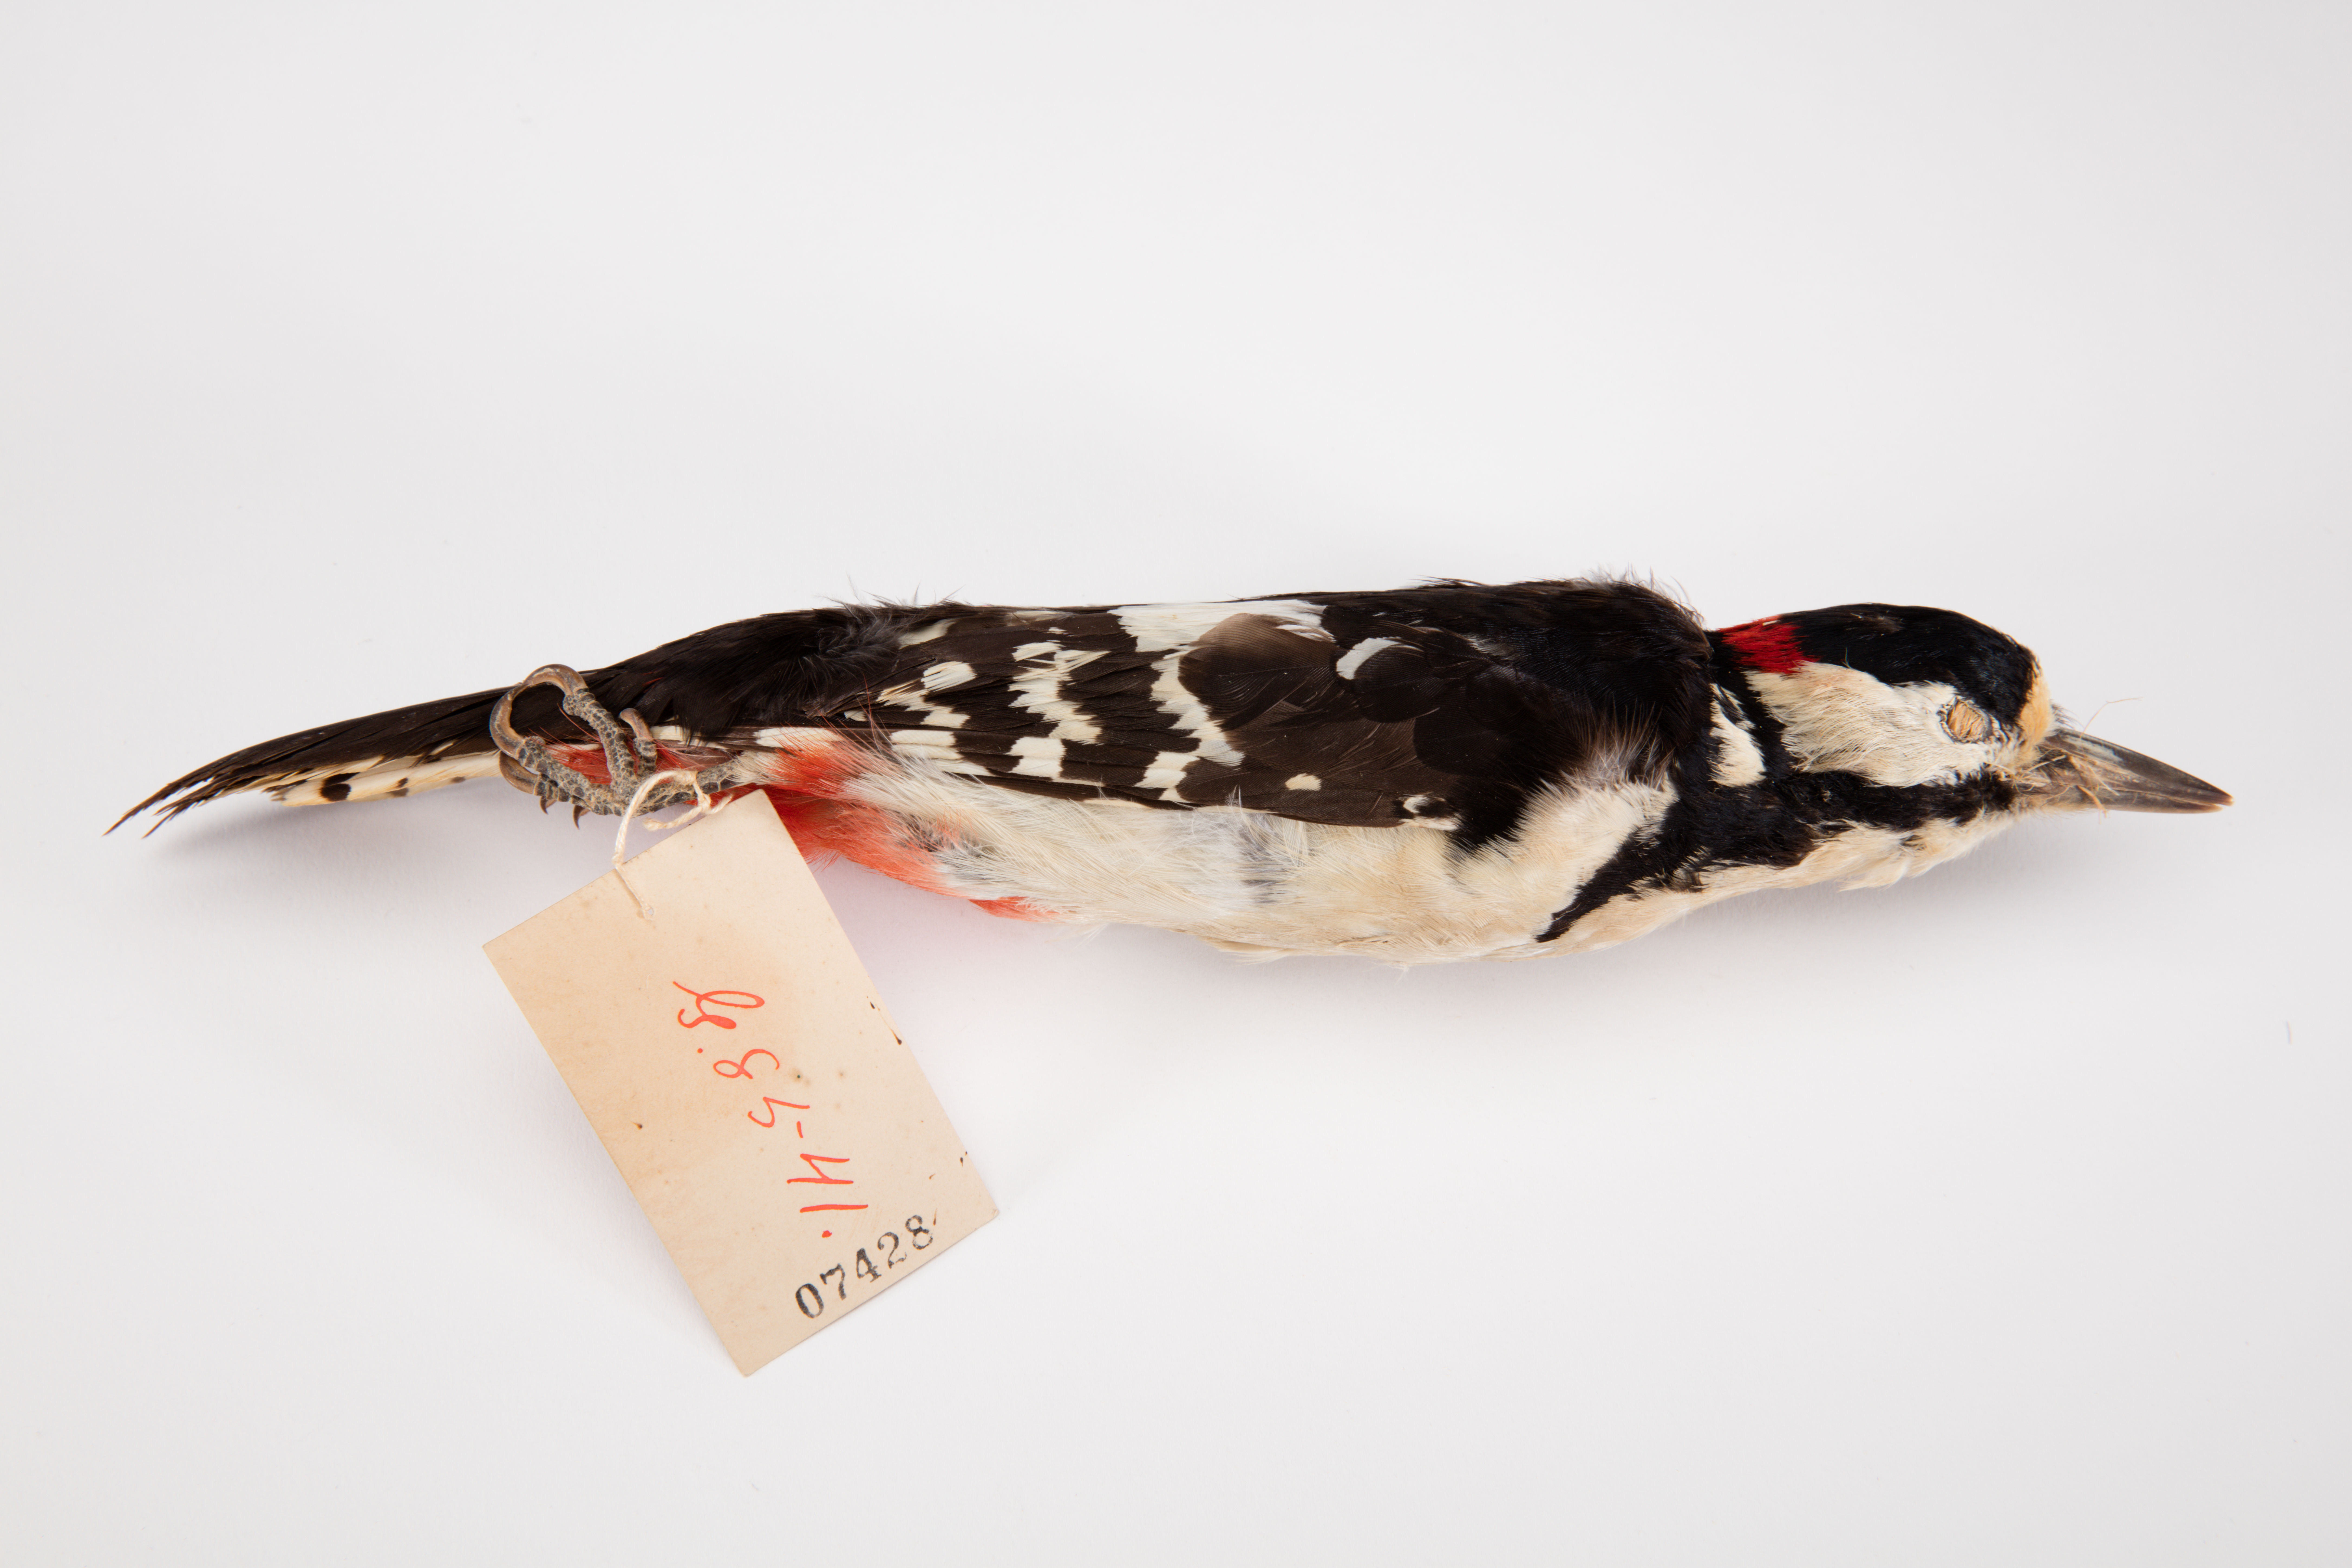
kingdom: Animalia
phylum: Chordata
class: Aves
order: Piciformes
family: Picidae
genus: Dendrocopos
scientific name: Dendrocopos major
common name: Great spotted woodpecker
